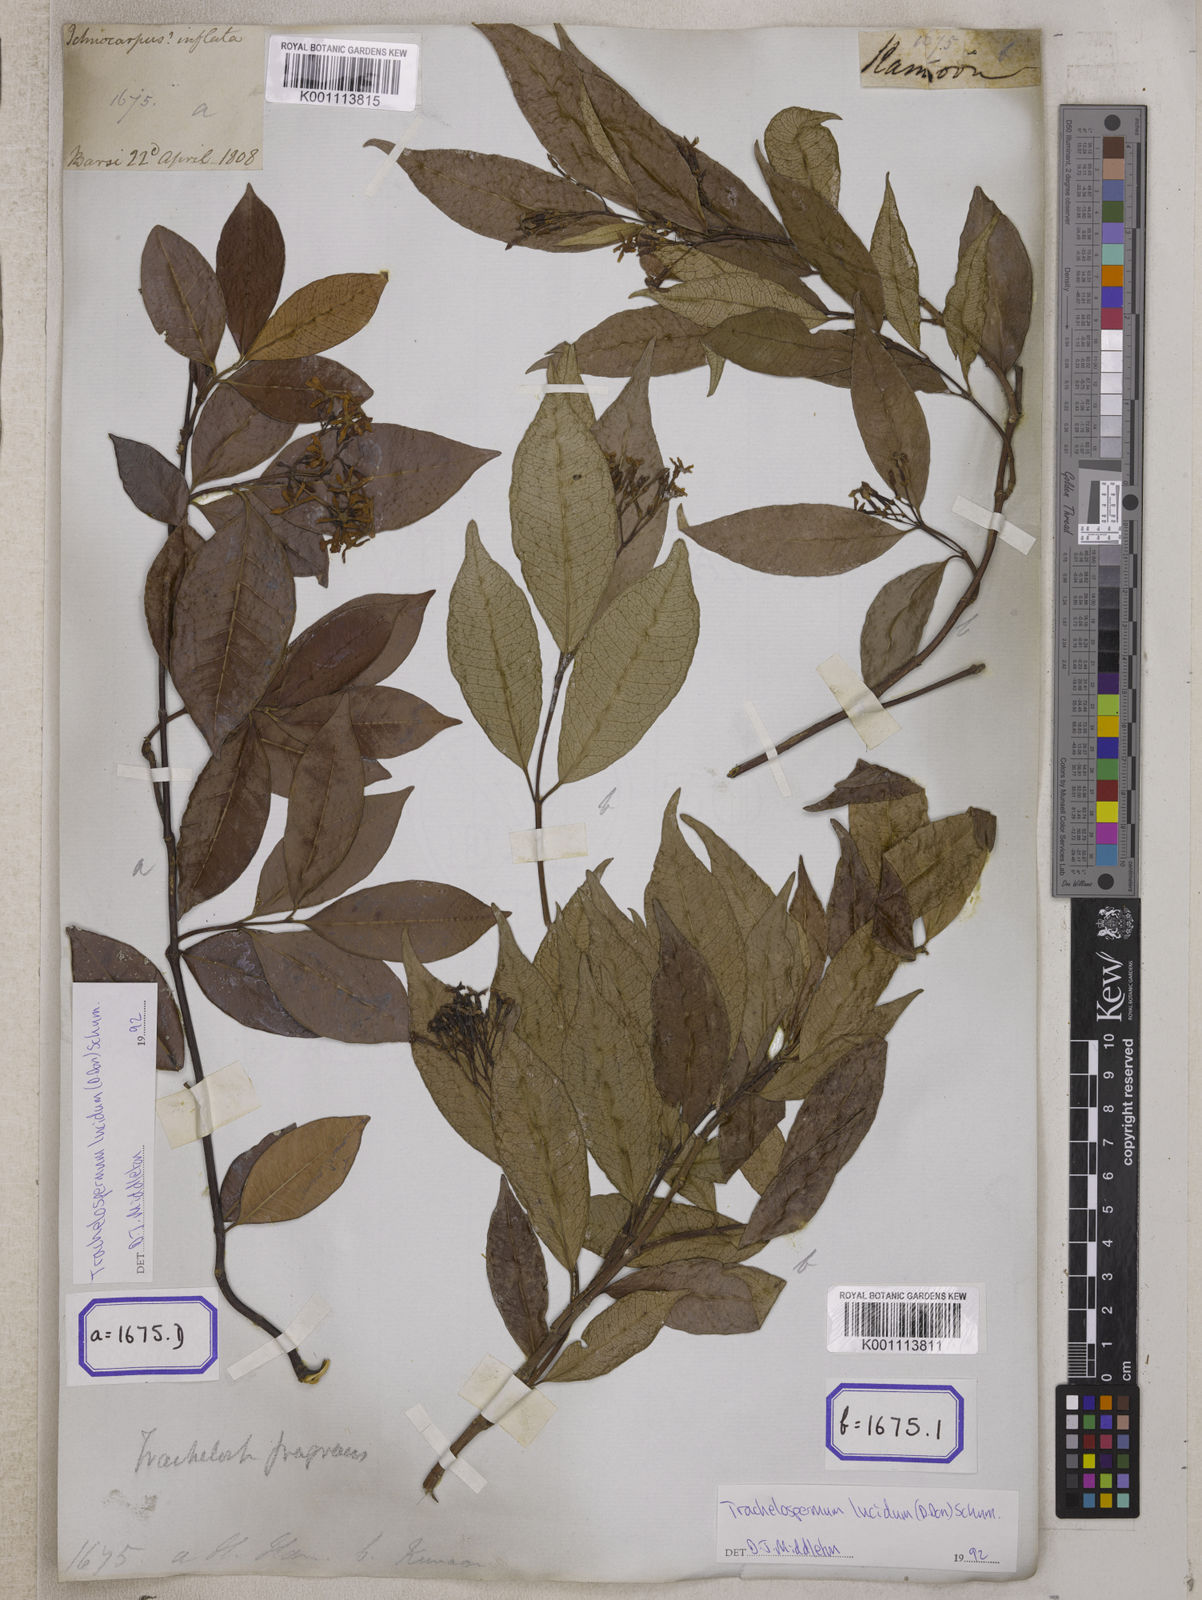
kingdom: Plantae
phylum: Tracheophyta
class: Magnoliopsida
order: Gentianales
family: Apocynaceae
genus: Ichnocarpus
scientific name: Ichnocarpus
